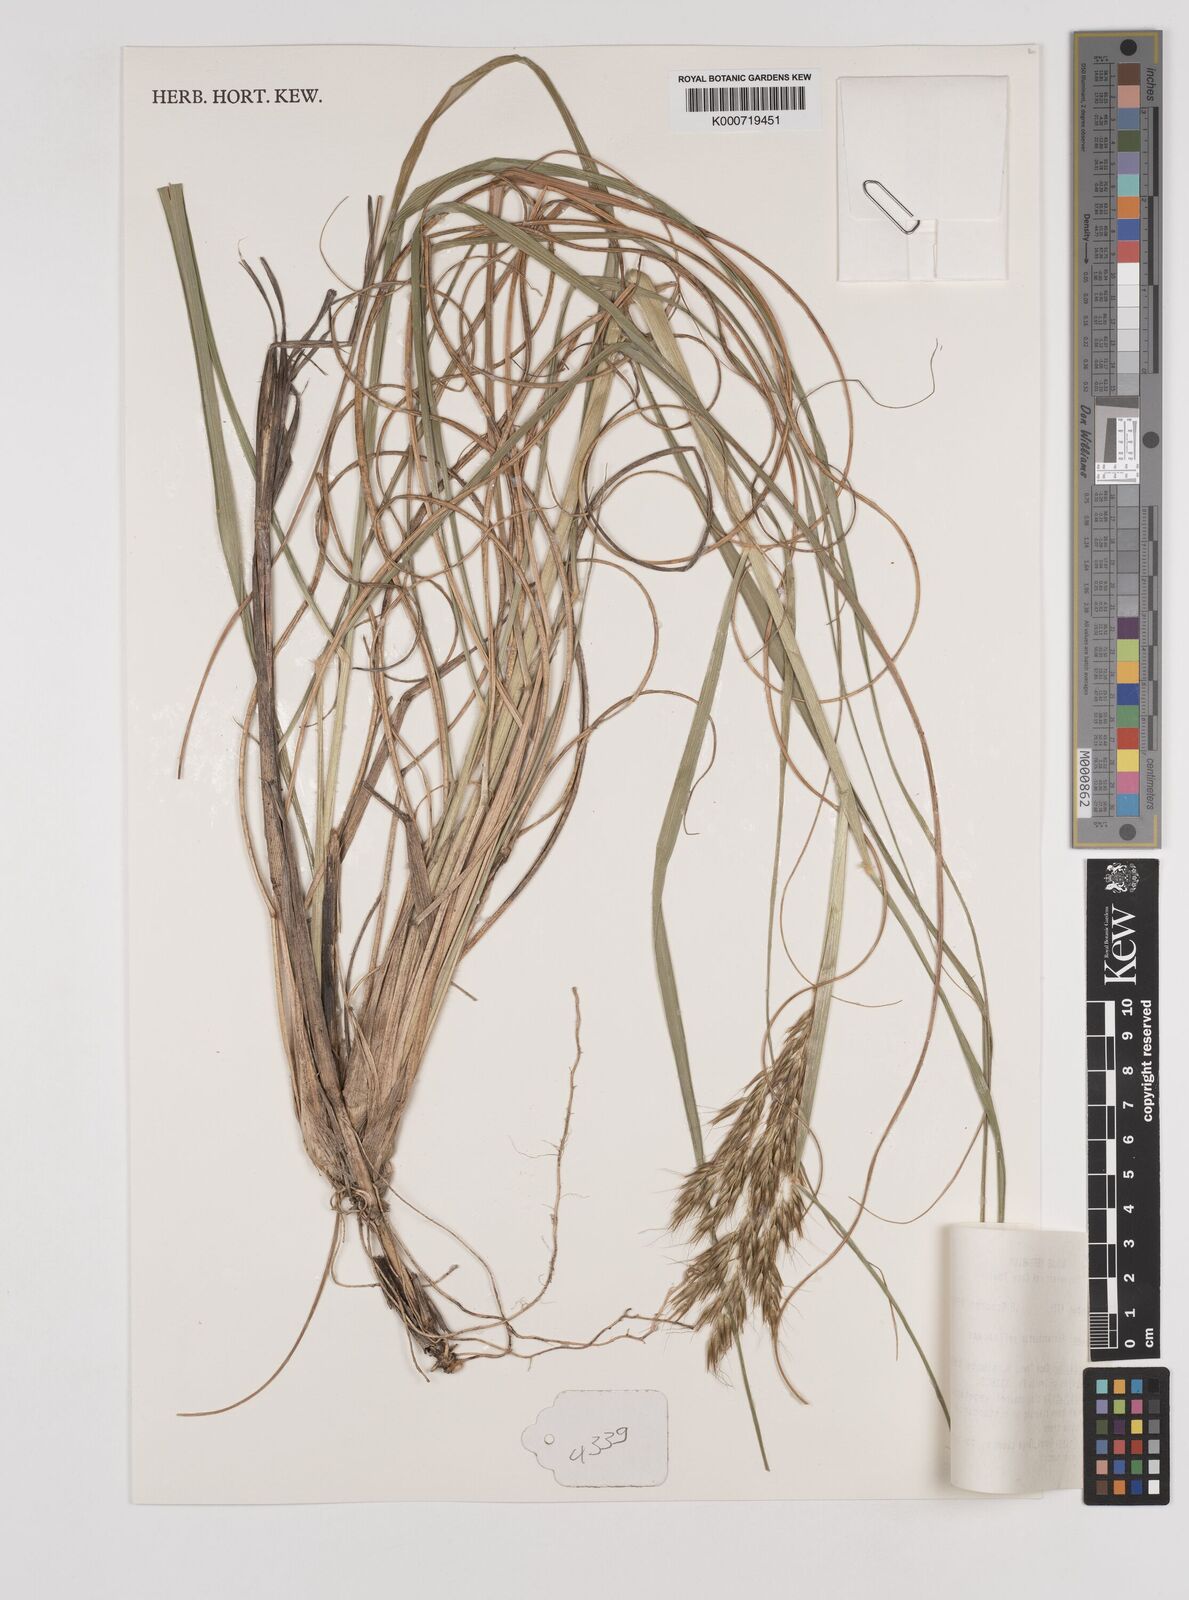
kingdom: Plantae
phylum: Tracheophyta
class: Liliopsida
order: Poales
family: Poaceae
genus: Pentameris
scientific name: Pentameris pallescens
